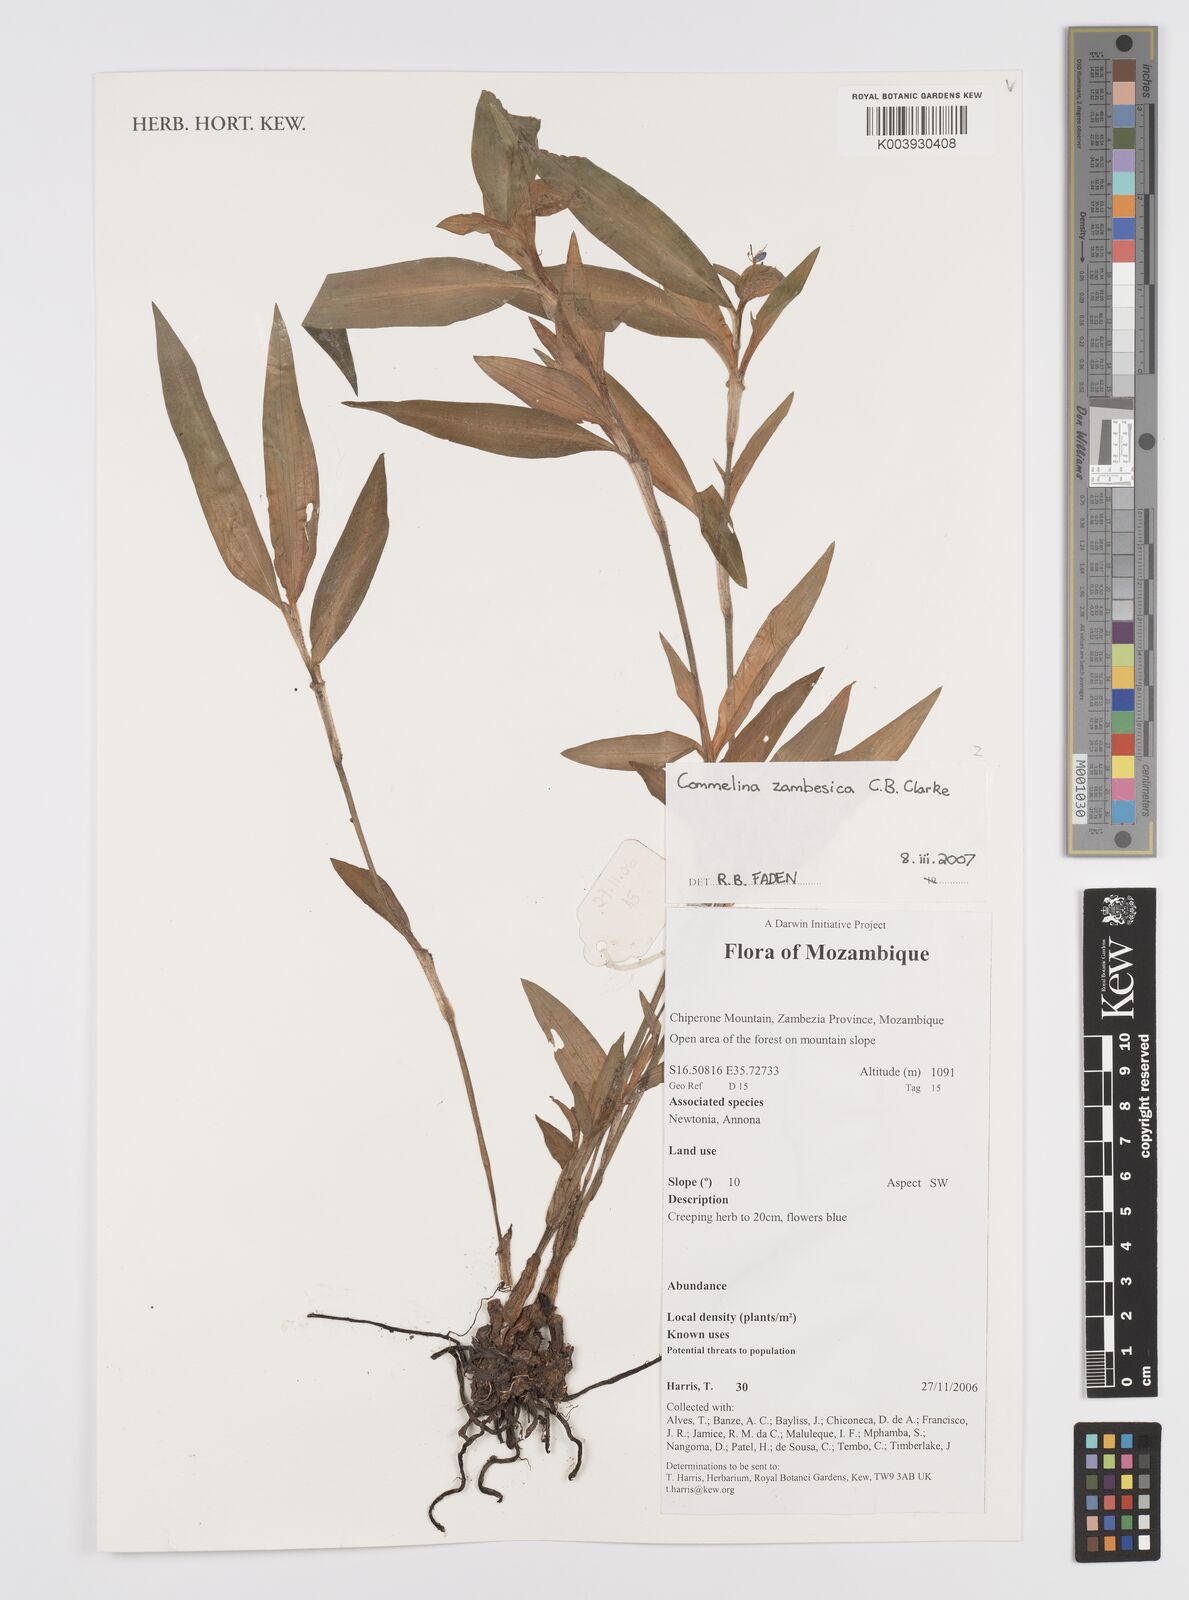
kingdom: Plantae
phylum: Tracheophyta
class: Liliopsida
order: Commelinales
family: Commelinaceae
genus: Commelina
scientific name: Commelina zambesica
